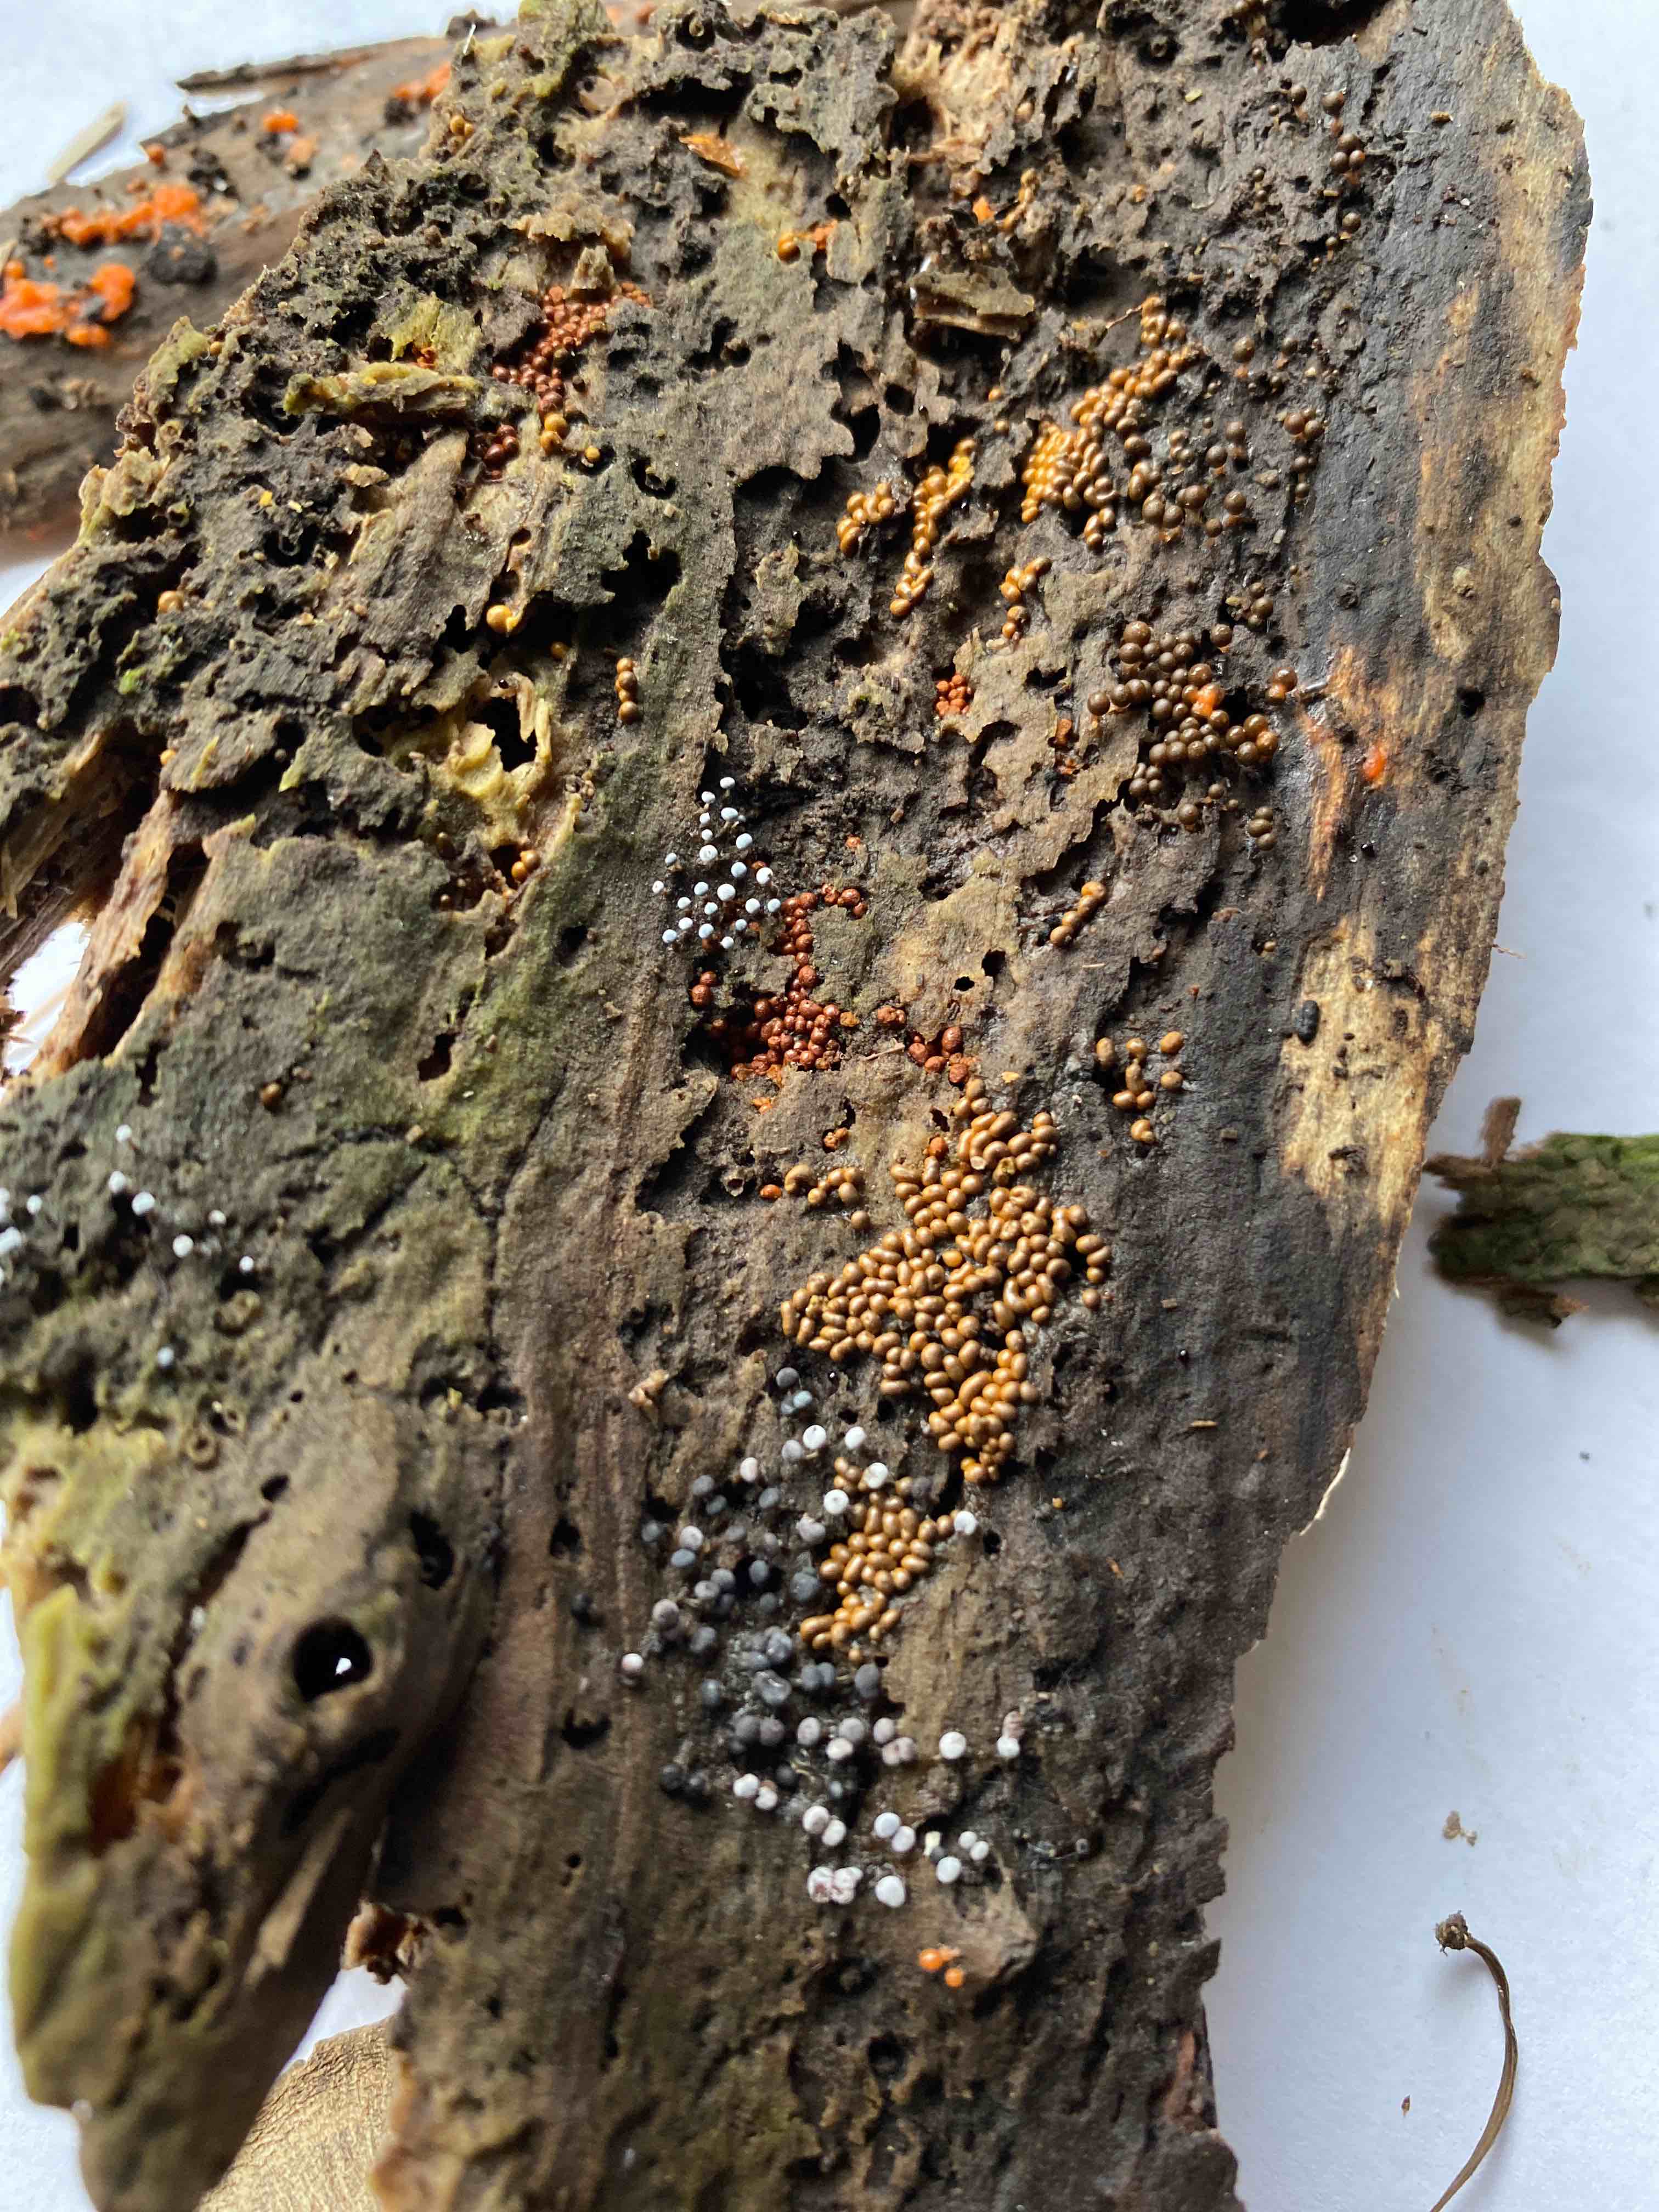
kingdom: Protozoa
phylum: Mycetozoa
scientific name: Mycetozoa
